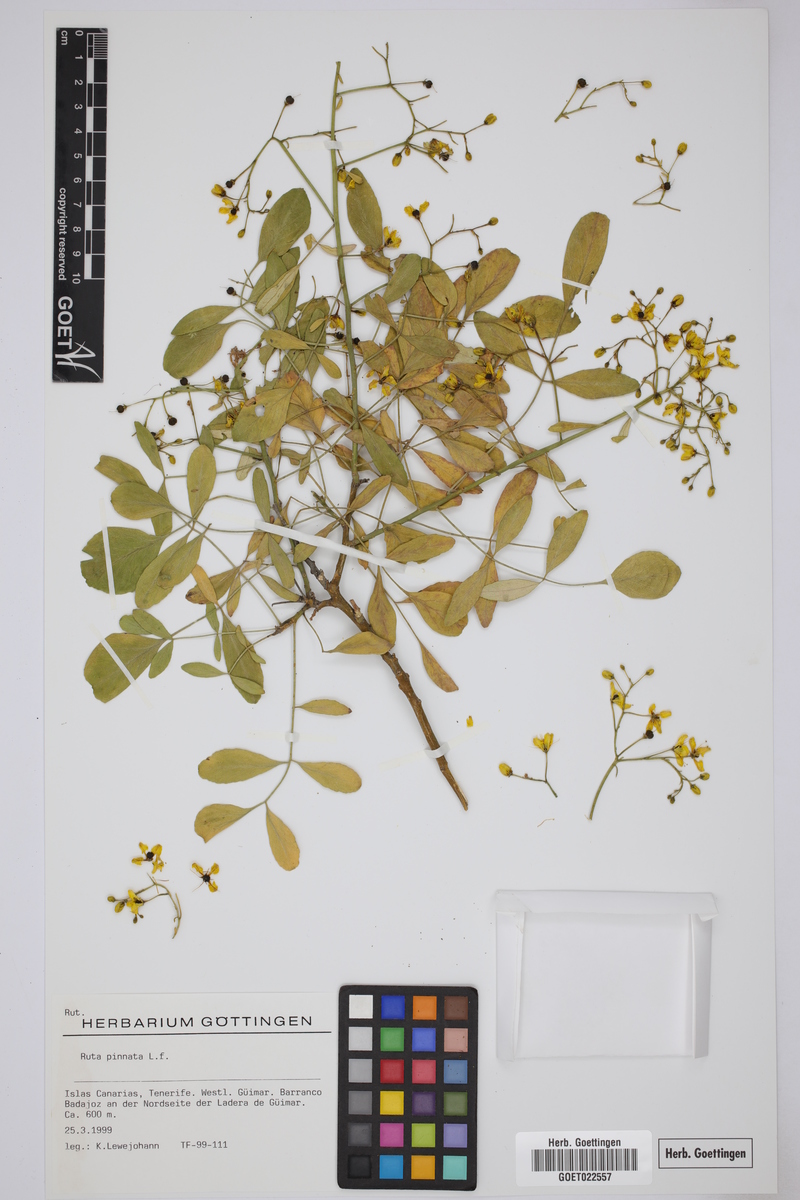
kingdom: Plantae
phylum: Tracheophyta
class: Magnoliopsida
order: Sapindales
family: Rutaceae
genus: Ruta
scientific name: Ruta pinnata
